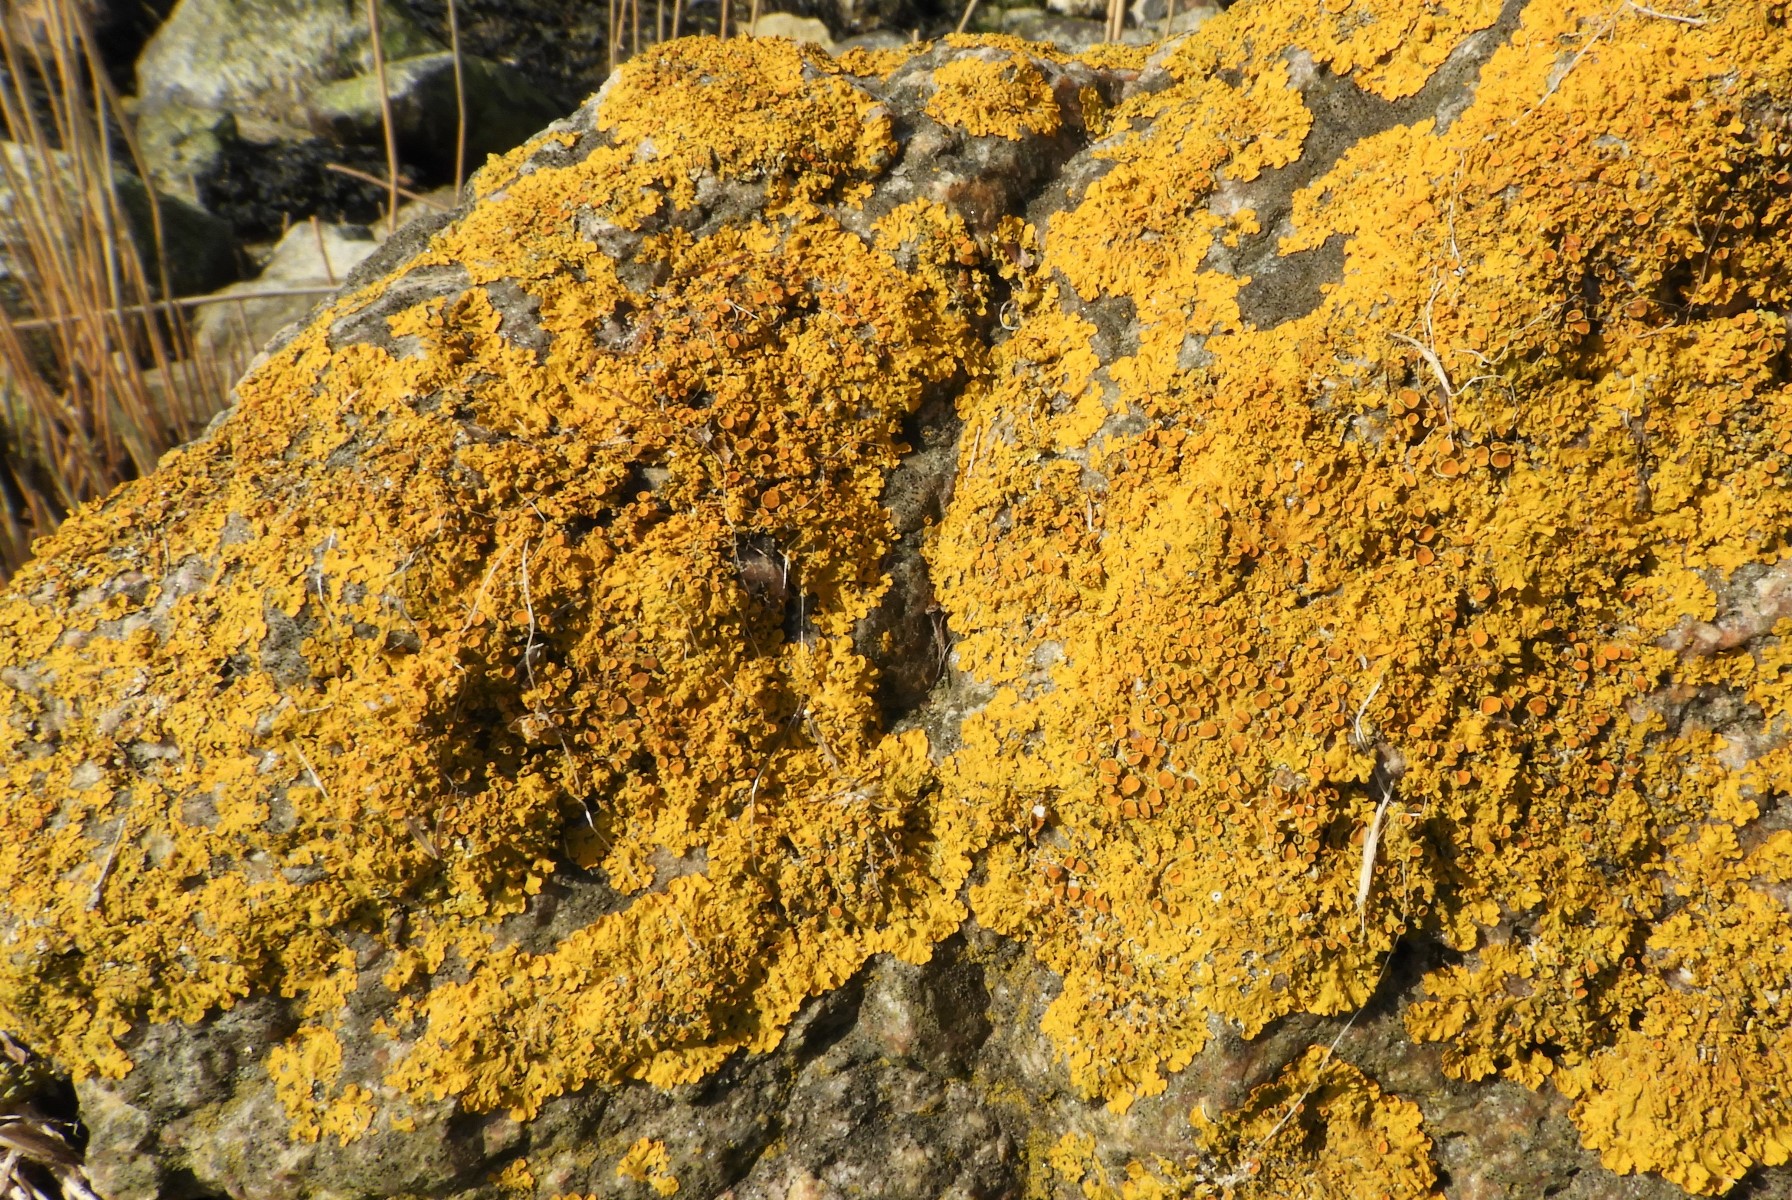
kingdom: Fungi
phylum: Ascomycota
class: Lecanoromycetes
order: Teloschistales
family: Teloschistaceae
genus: Xanthoria
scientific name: Xanthoria parietina
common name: almindelig væggelav
